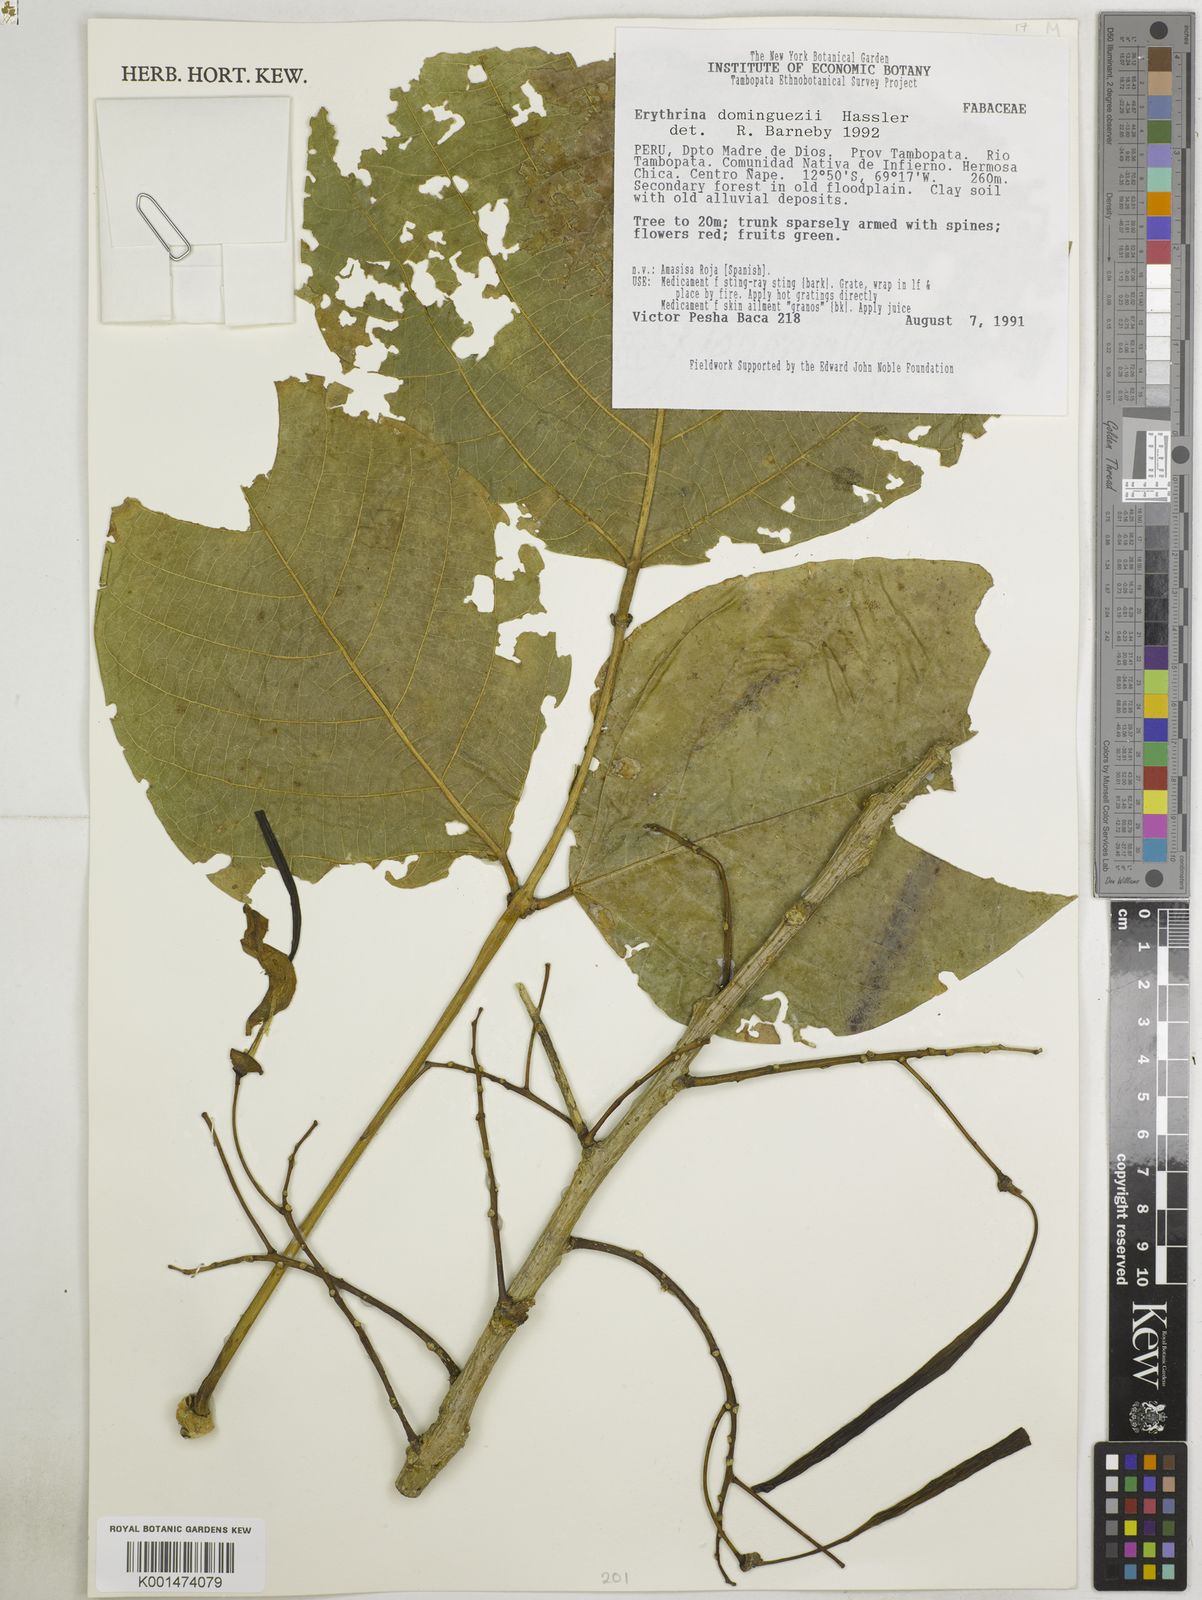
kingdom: Plantae
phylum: Tracheophyta
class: Magnoliopsida
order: Fabales
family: Fabaceae
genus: Erythrina
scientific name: Erythrina mulungu
